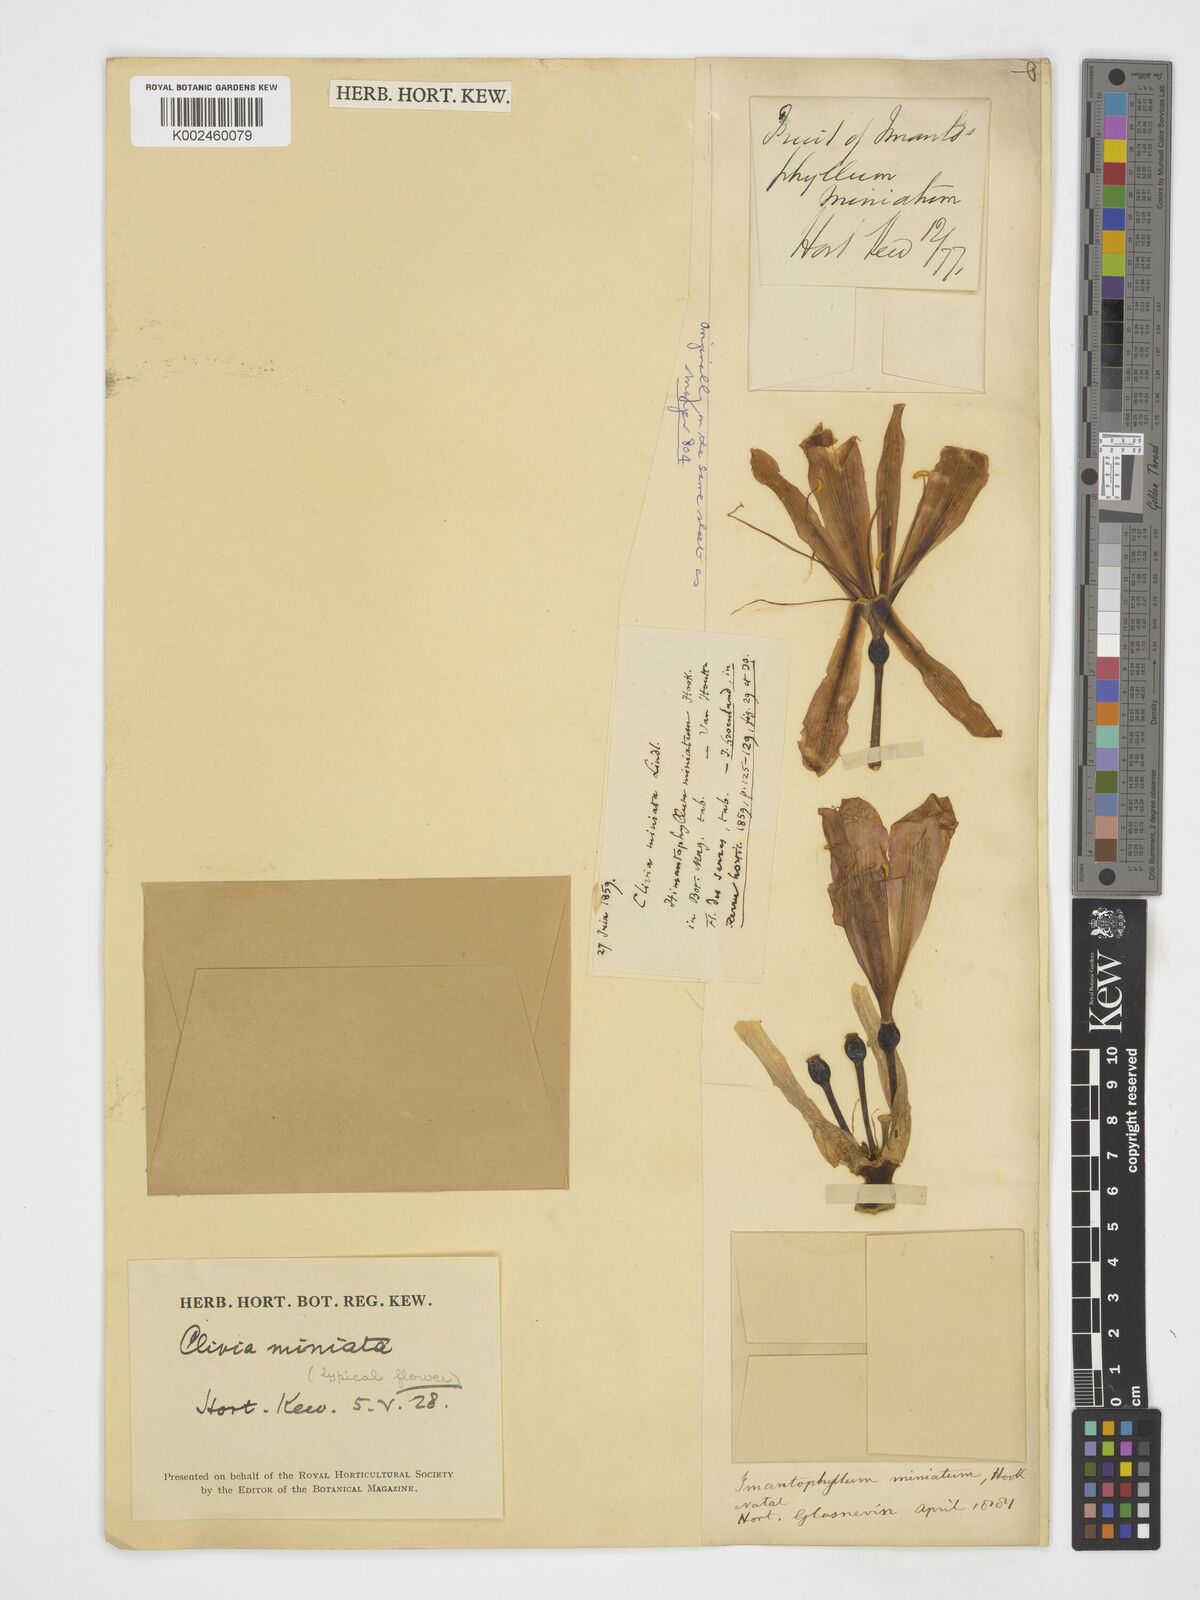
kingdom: Plantae
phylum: Tracheophyta
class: Liliopsida
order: Asparagales
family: Amaryllidaceae
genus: Clivia
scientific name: Clivia miniata
